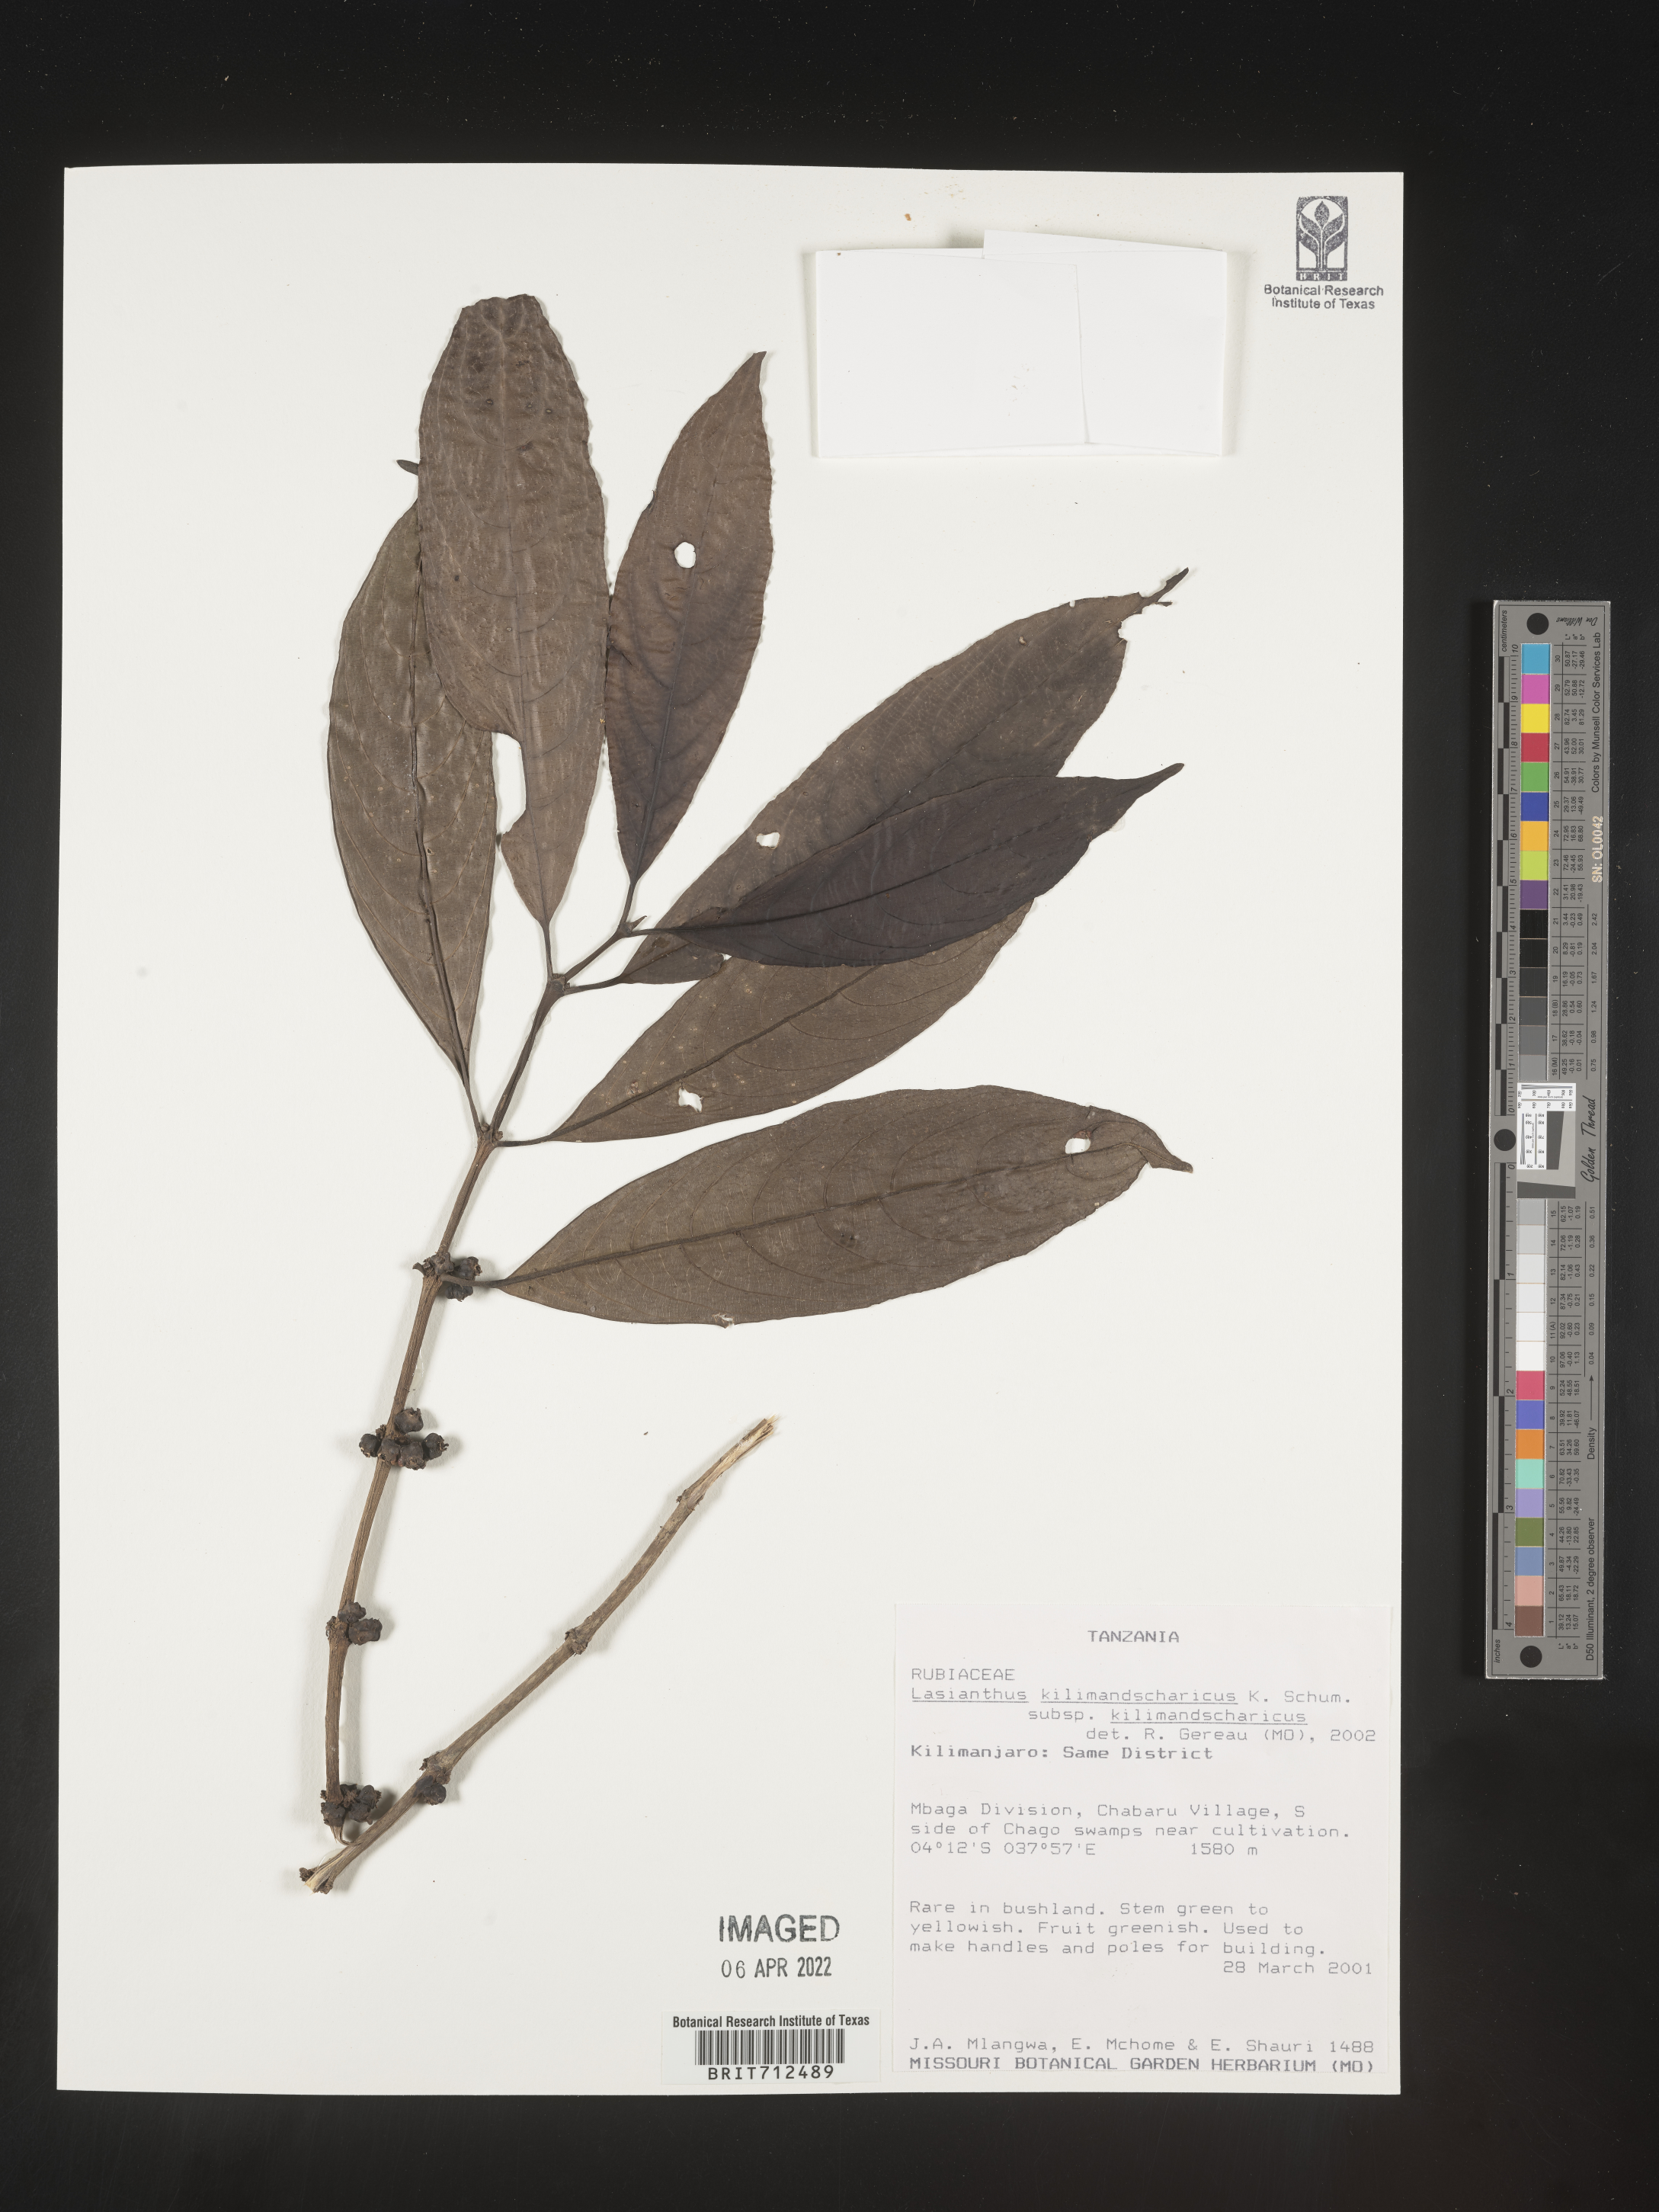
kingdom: Plantae
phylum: Tracheophyta
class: Magnoliopsida
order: Gentianales
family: Rubiaceae
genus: Lasianthus
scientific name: Lasianthus
